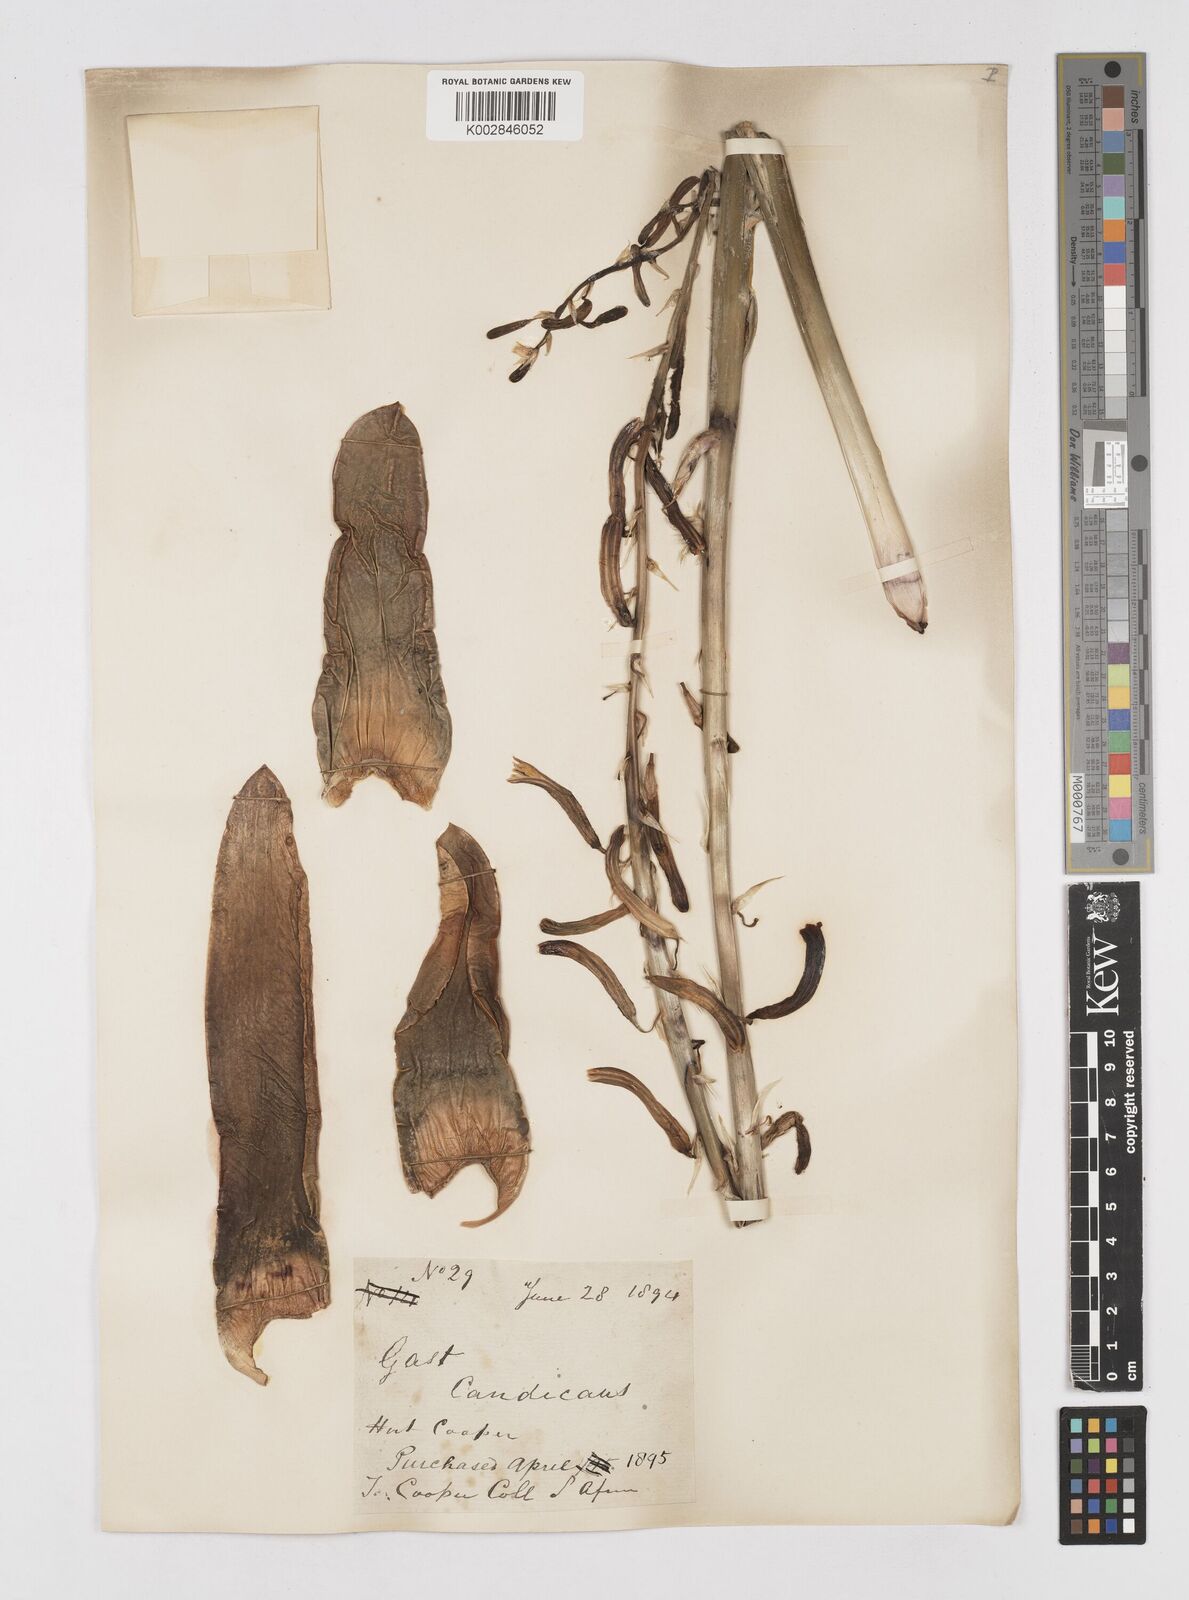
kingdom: Plantae
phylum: Tracheophyta
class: Liliopsida
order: Asparagales
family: Asphodelaceae
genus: Gasteria
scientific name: Gasteria acinacifolia
